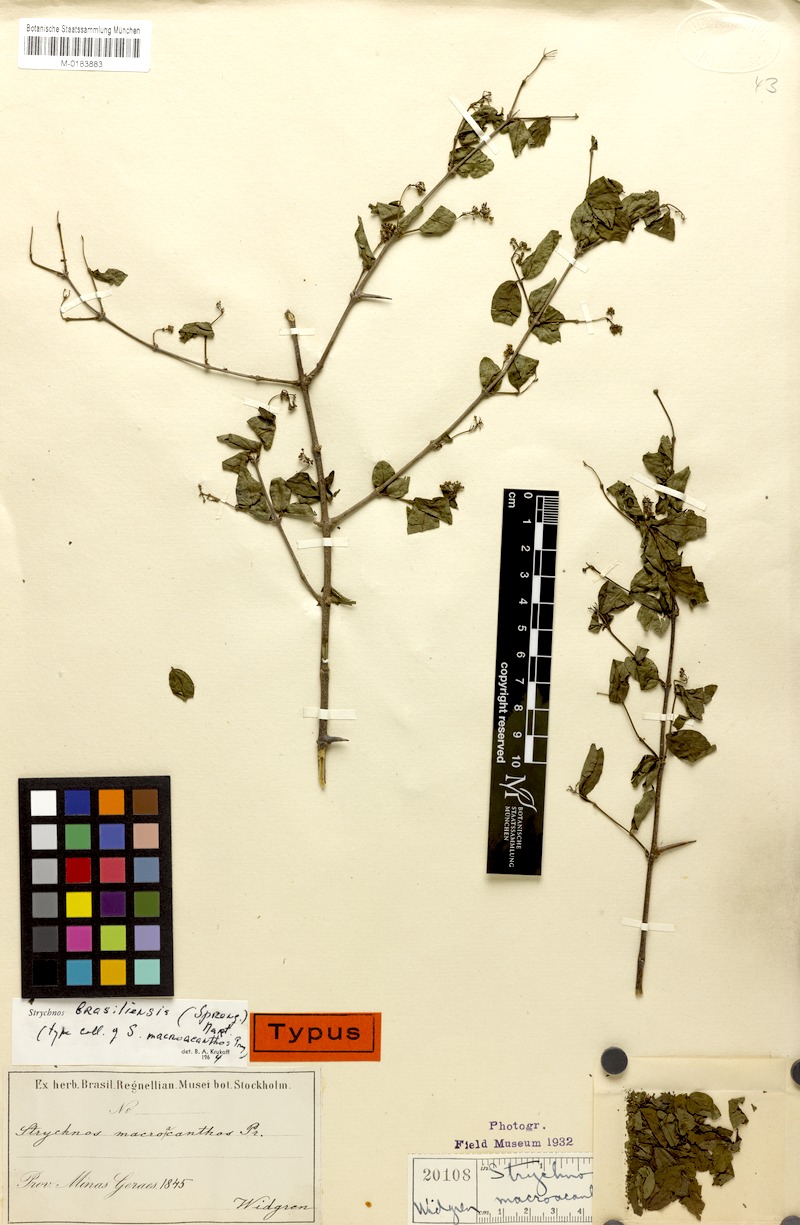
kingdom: Plantae
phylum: Tracheophyta
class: Magnoliopsida
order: Gentianales
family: Loganiaceae
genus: Strychnos
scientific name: Strychnos brasiliensis
